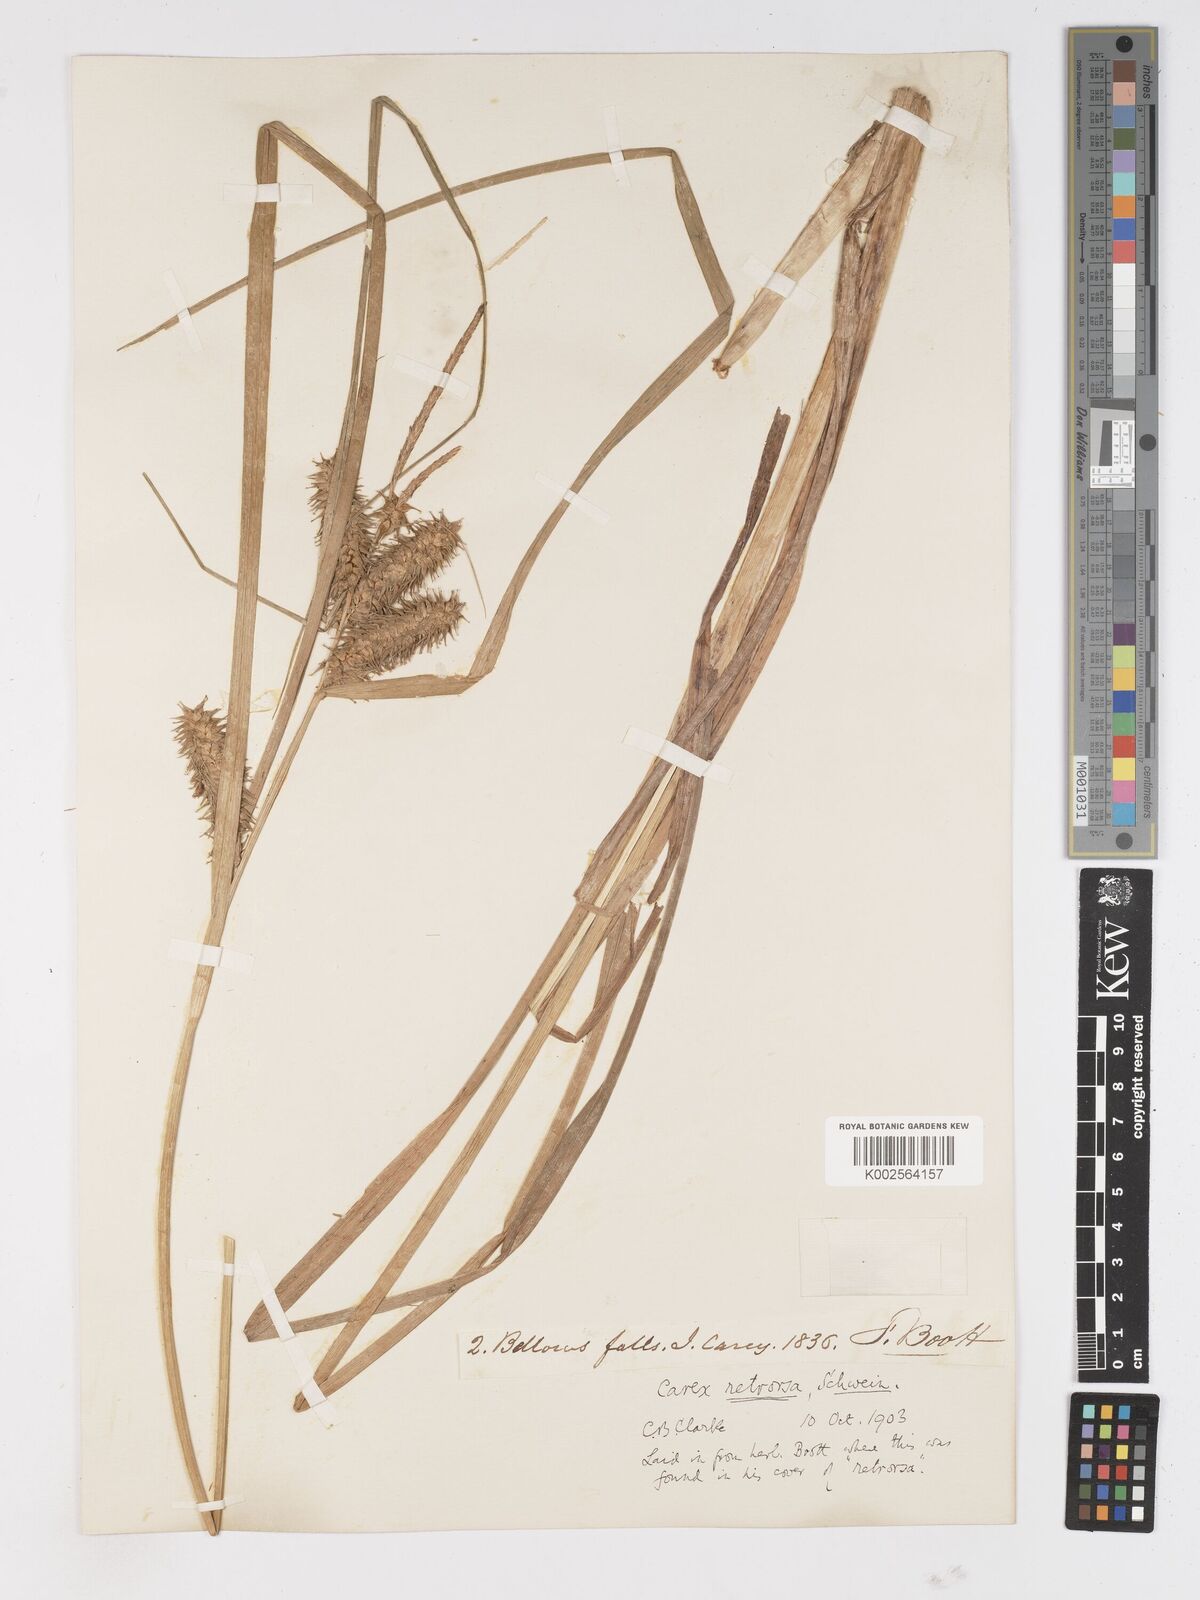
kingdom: Plantae
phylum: Tracheophyta
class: Liliopsida
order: Poales
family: Cyperaceae
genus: Carex
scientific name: Carex retrorsa
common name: Knot-sheath sedge
